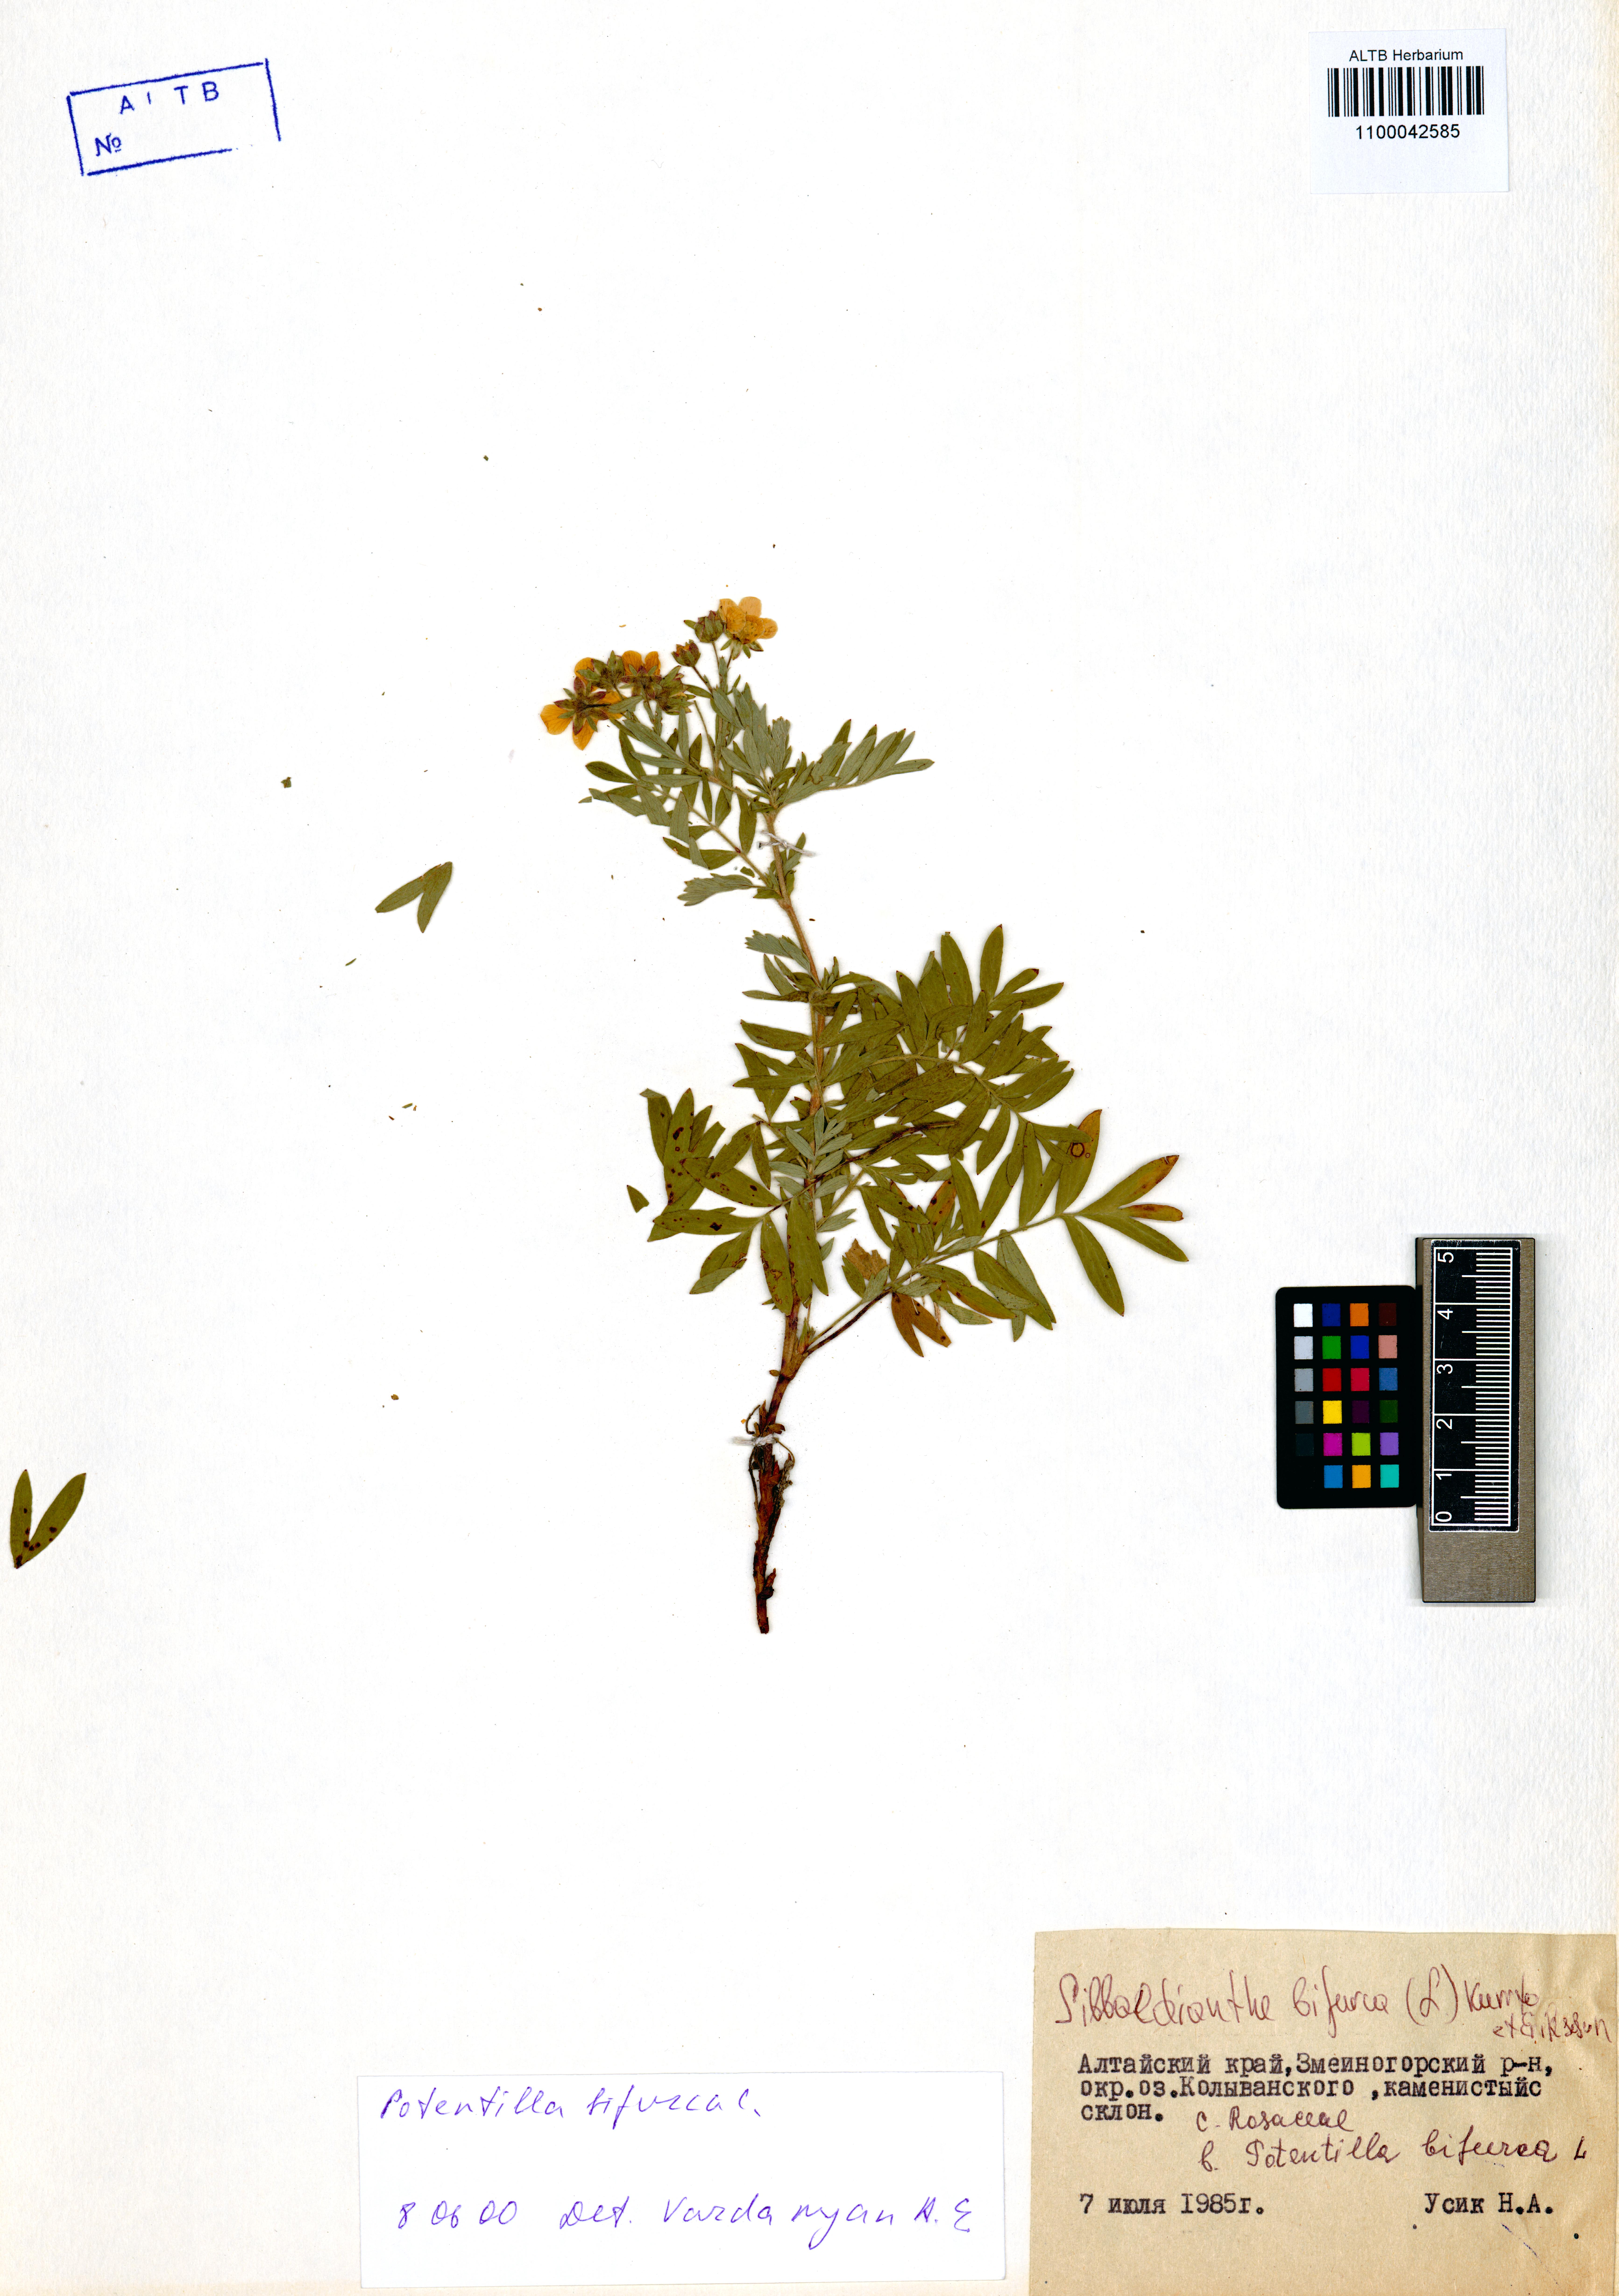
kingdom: Plantae
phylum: Tracheophyta
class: Magnoliopsida
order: Rosales
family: Rosaceae
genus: Sibbaldianthe
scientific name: Sibbaldianthe bifurca
